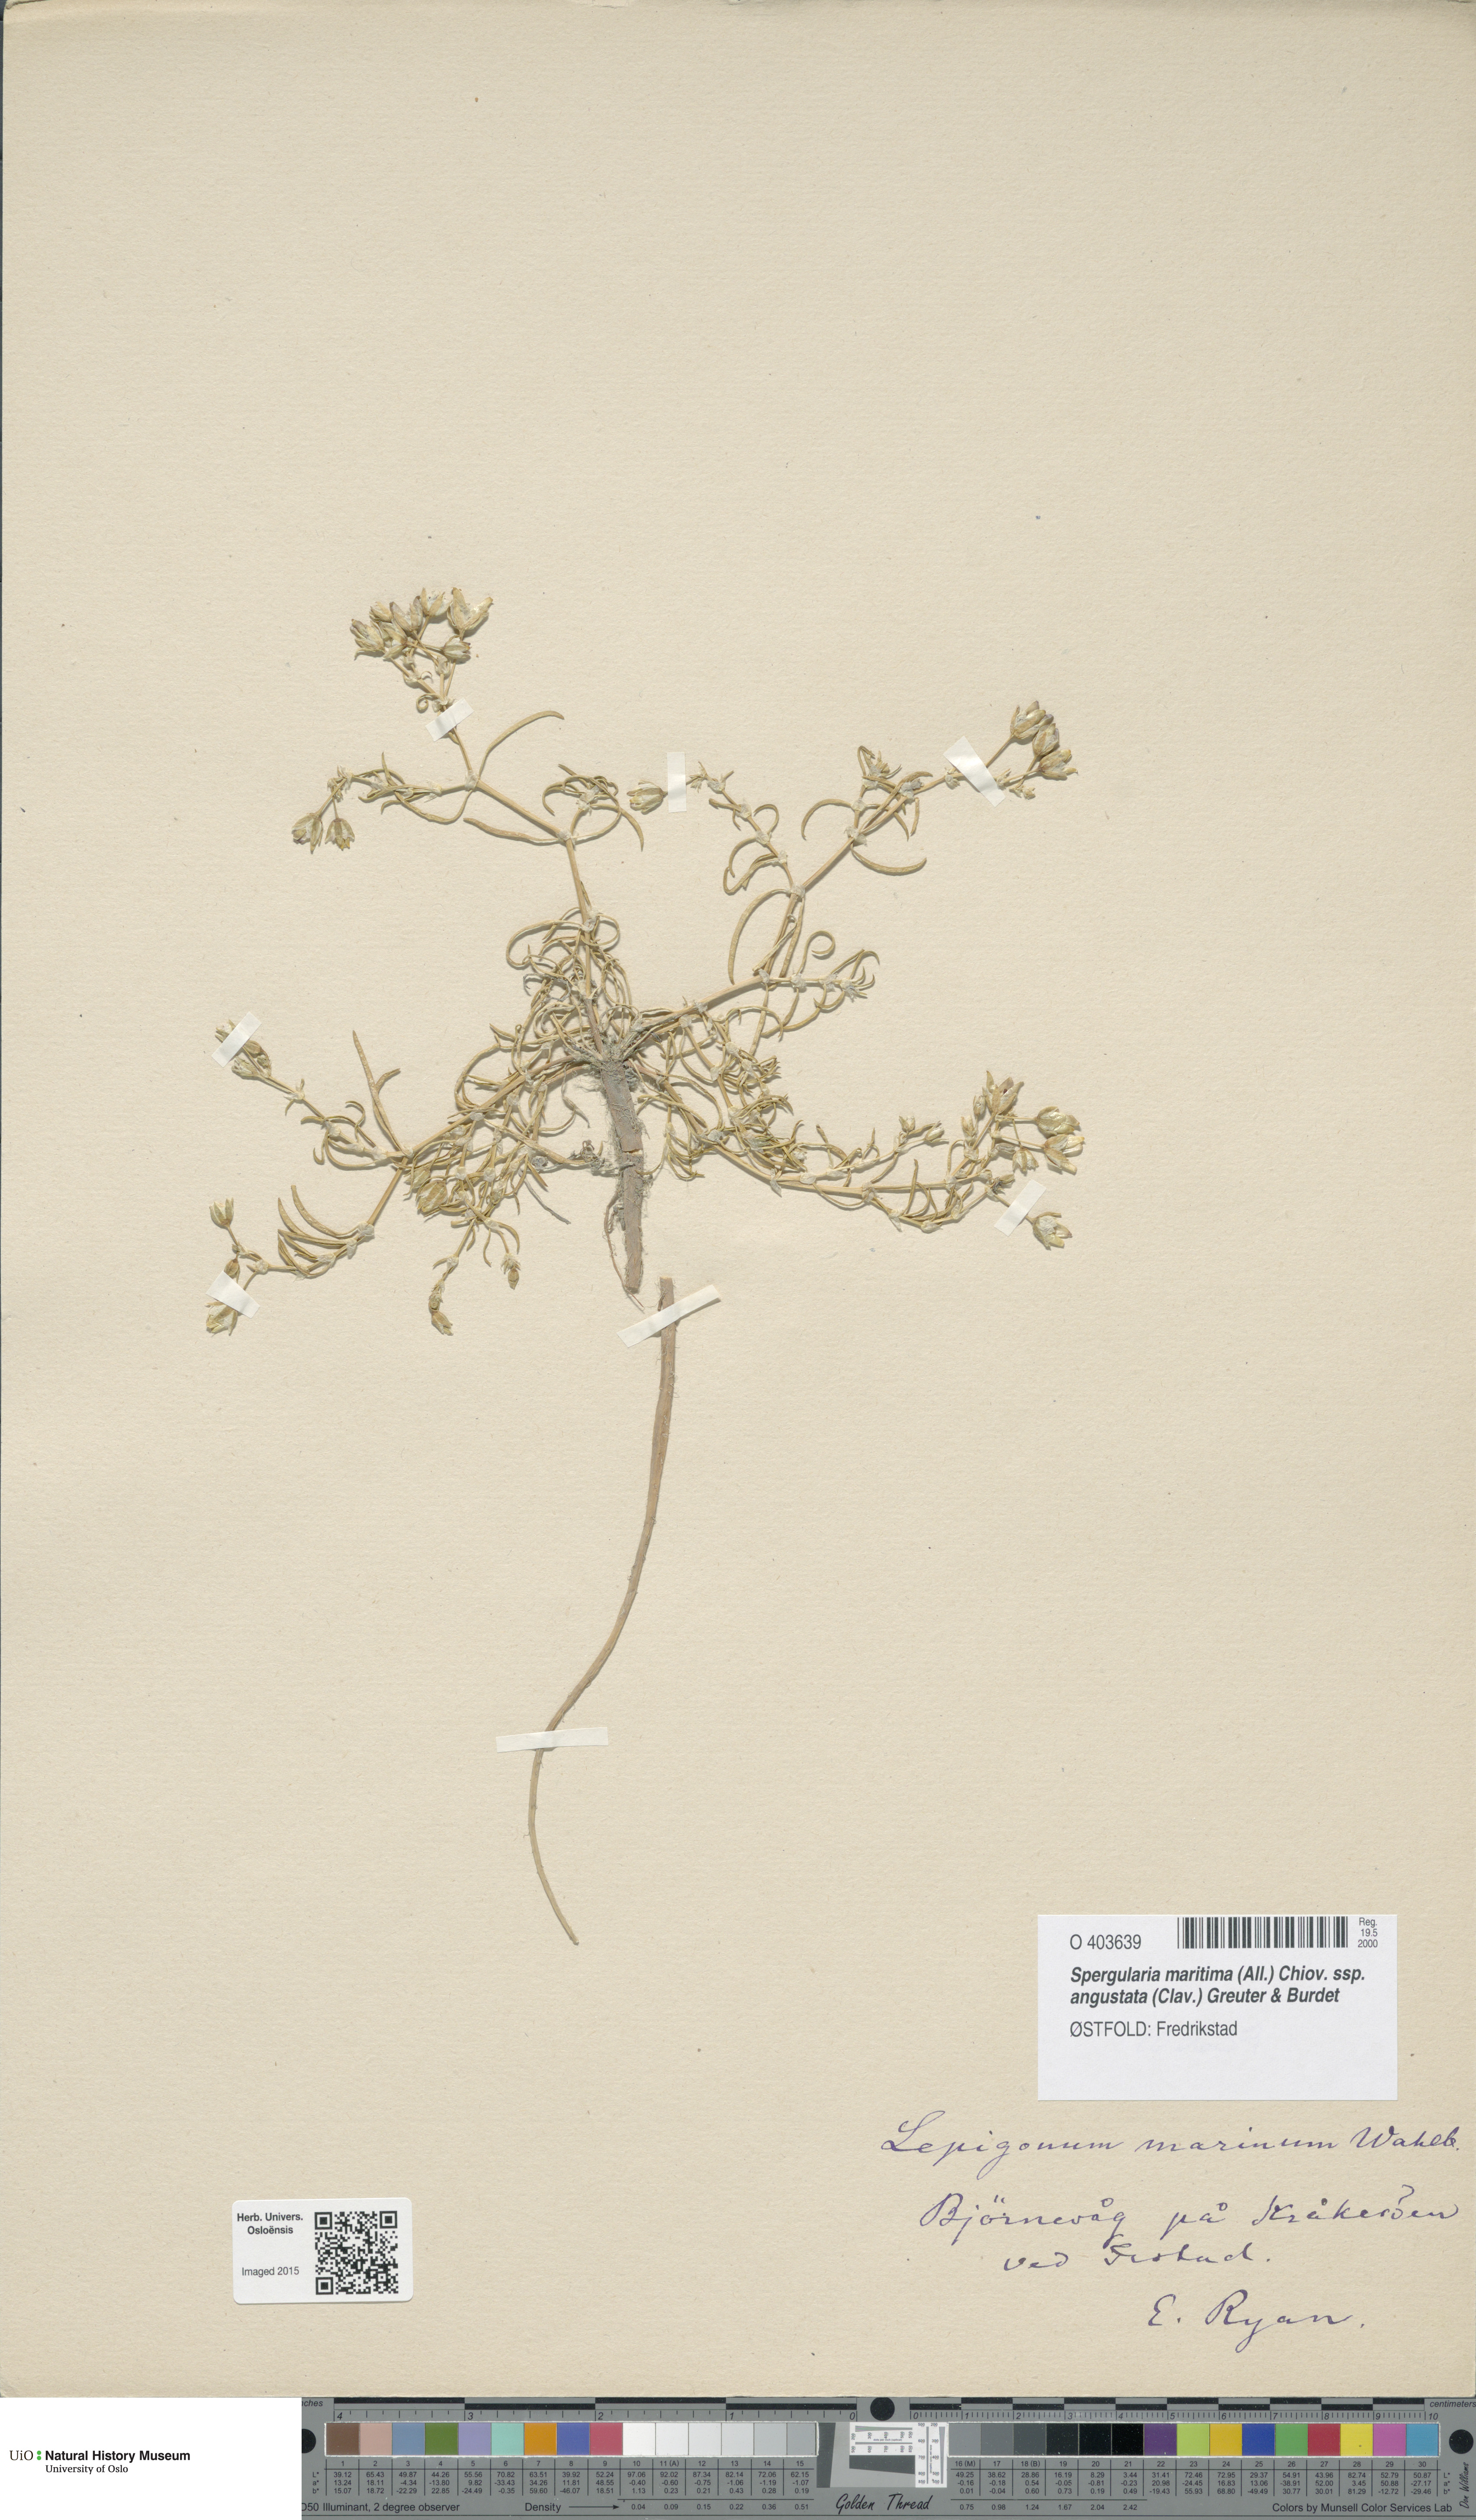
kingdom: Plantae
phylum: Tracheophyta
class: Magnoliopsida
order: Caryophyllales
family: Caryophyllaceae
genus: Spergularia
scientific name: Spergularia marina
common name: Lesser sea-spurrey
